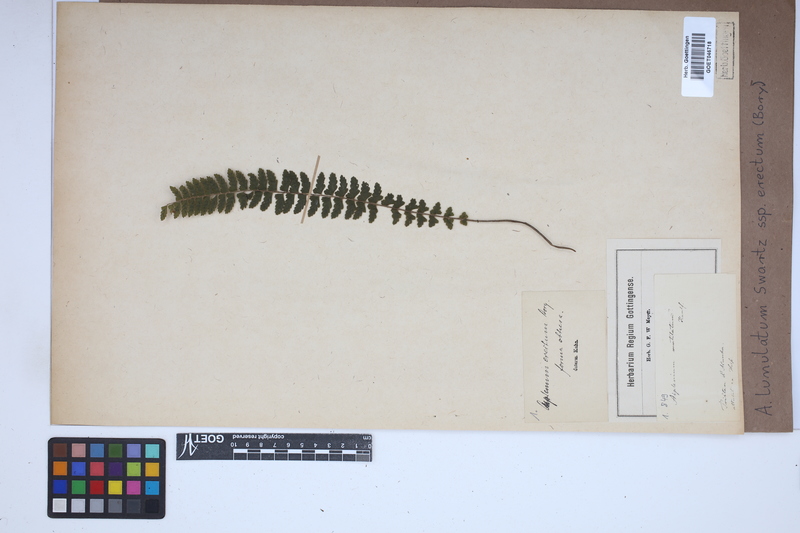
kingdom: Plantae
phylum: Tracheophyta
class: Polypodiopsida
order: Polypodiales
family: Aspleniaceae
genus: Asplenium
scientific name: Asplenium erectum
